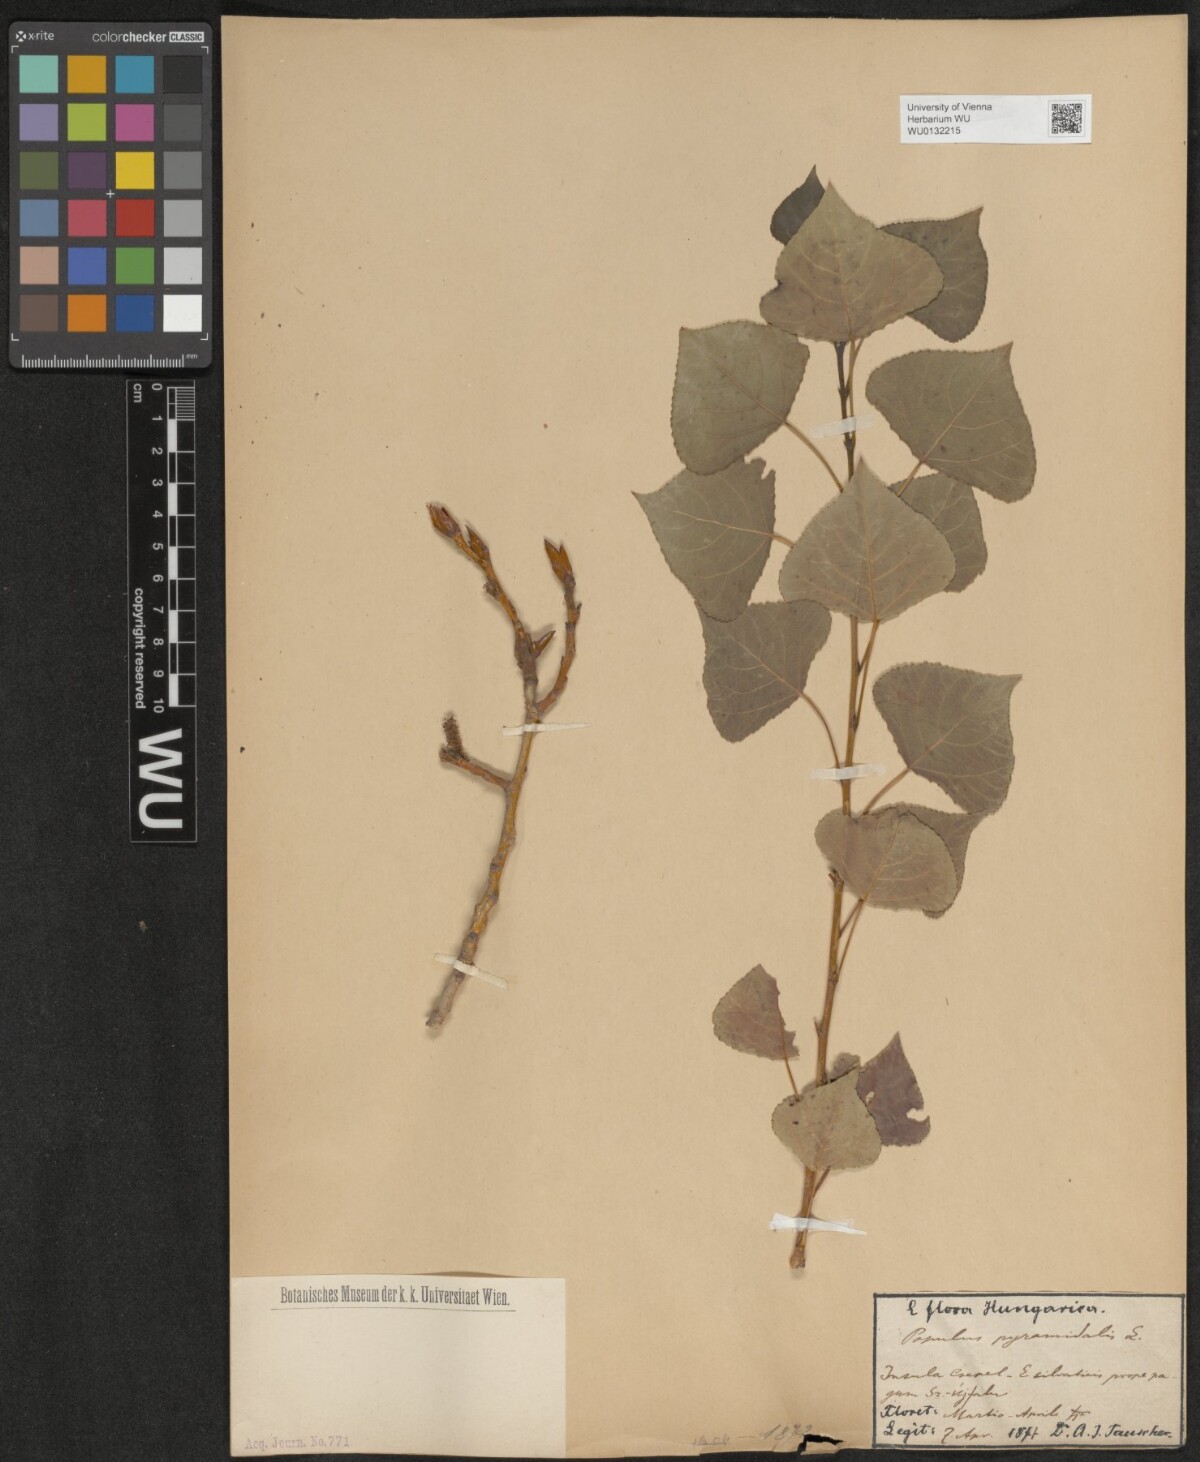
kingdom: Plantae
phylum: Tracheophyta
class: Magnoliopsida
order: Malpighiales
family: Salicaceae
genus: Populus
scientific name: Populus nigra
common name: Black poplar
